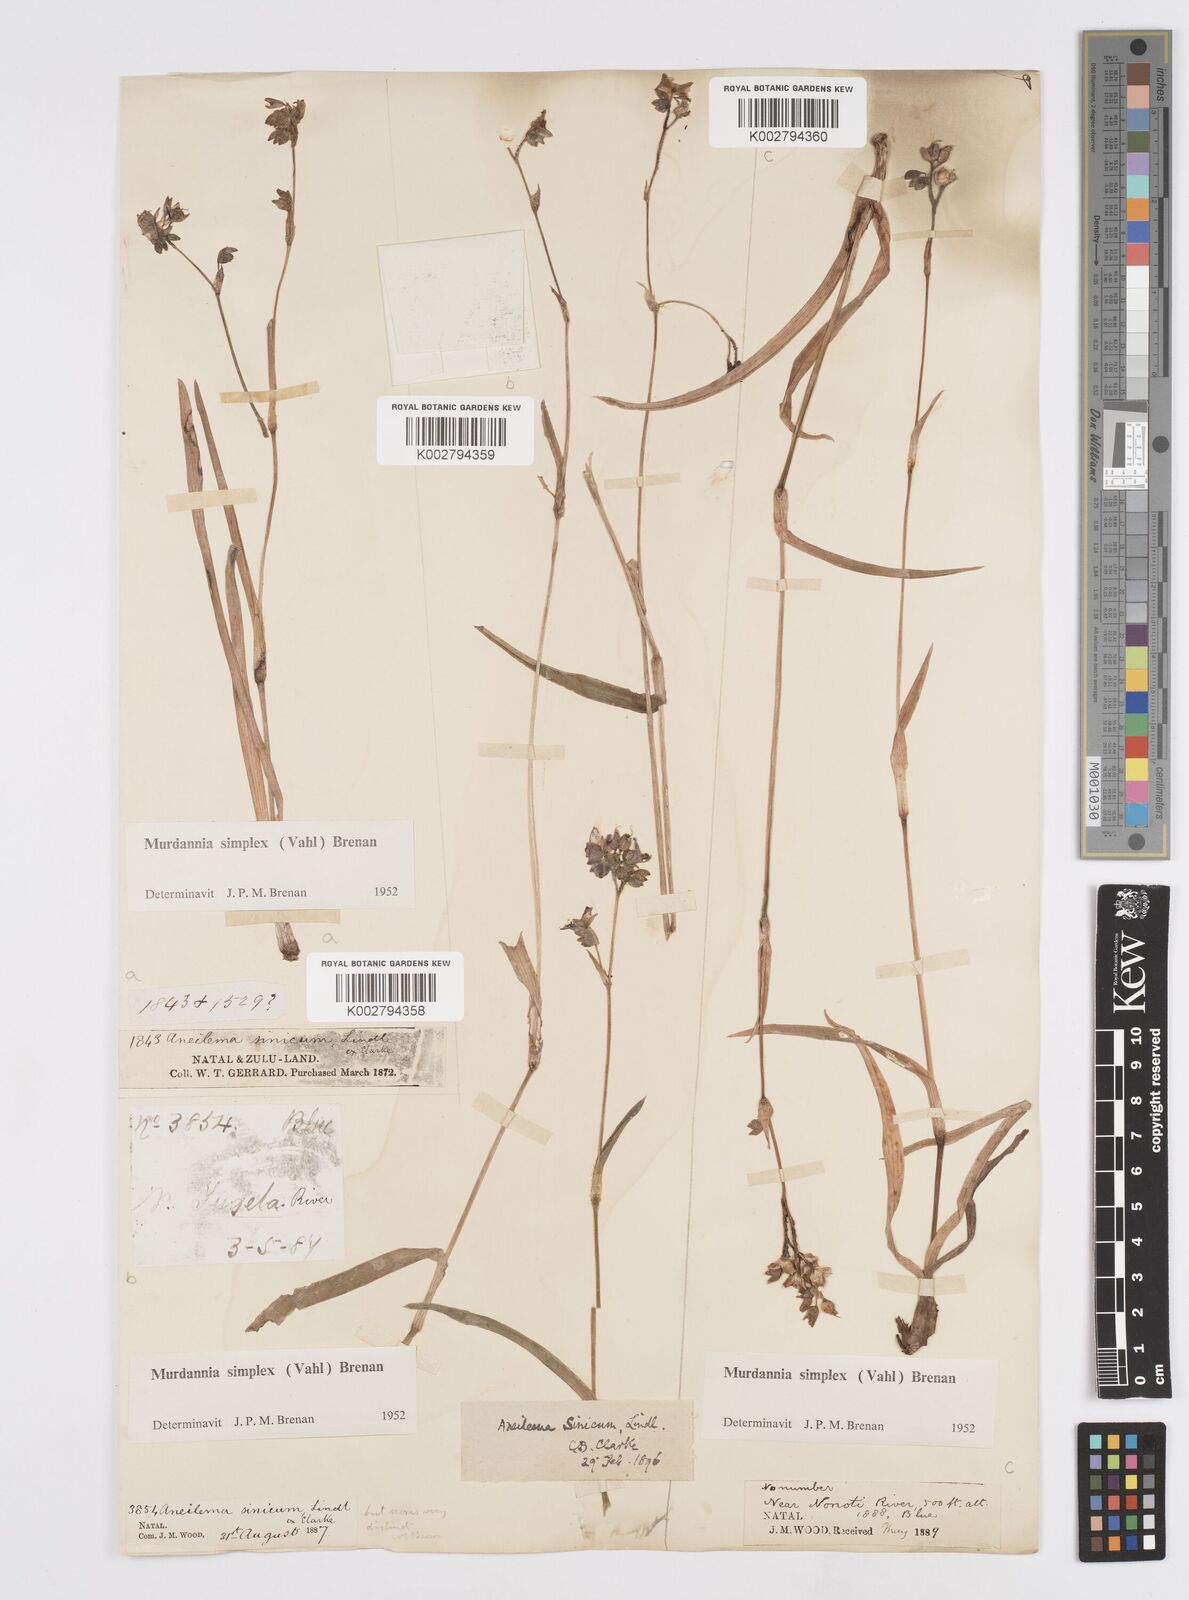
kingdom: Plantae
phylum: Tracheophyta
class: Liliopsida
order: Commelinales
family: Commelinaceae
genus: Murdannia
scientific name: Murdannia simplex
